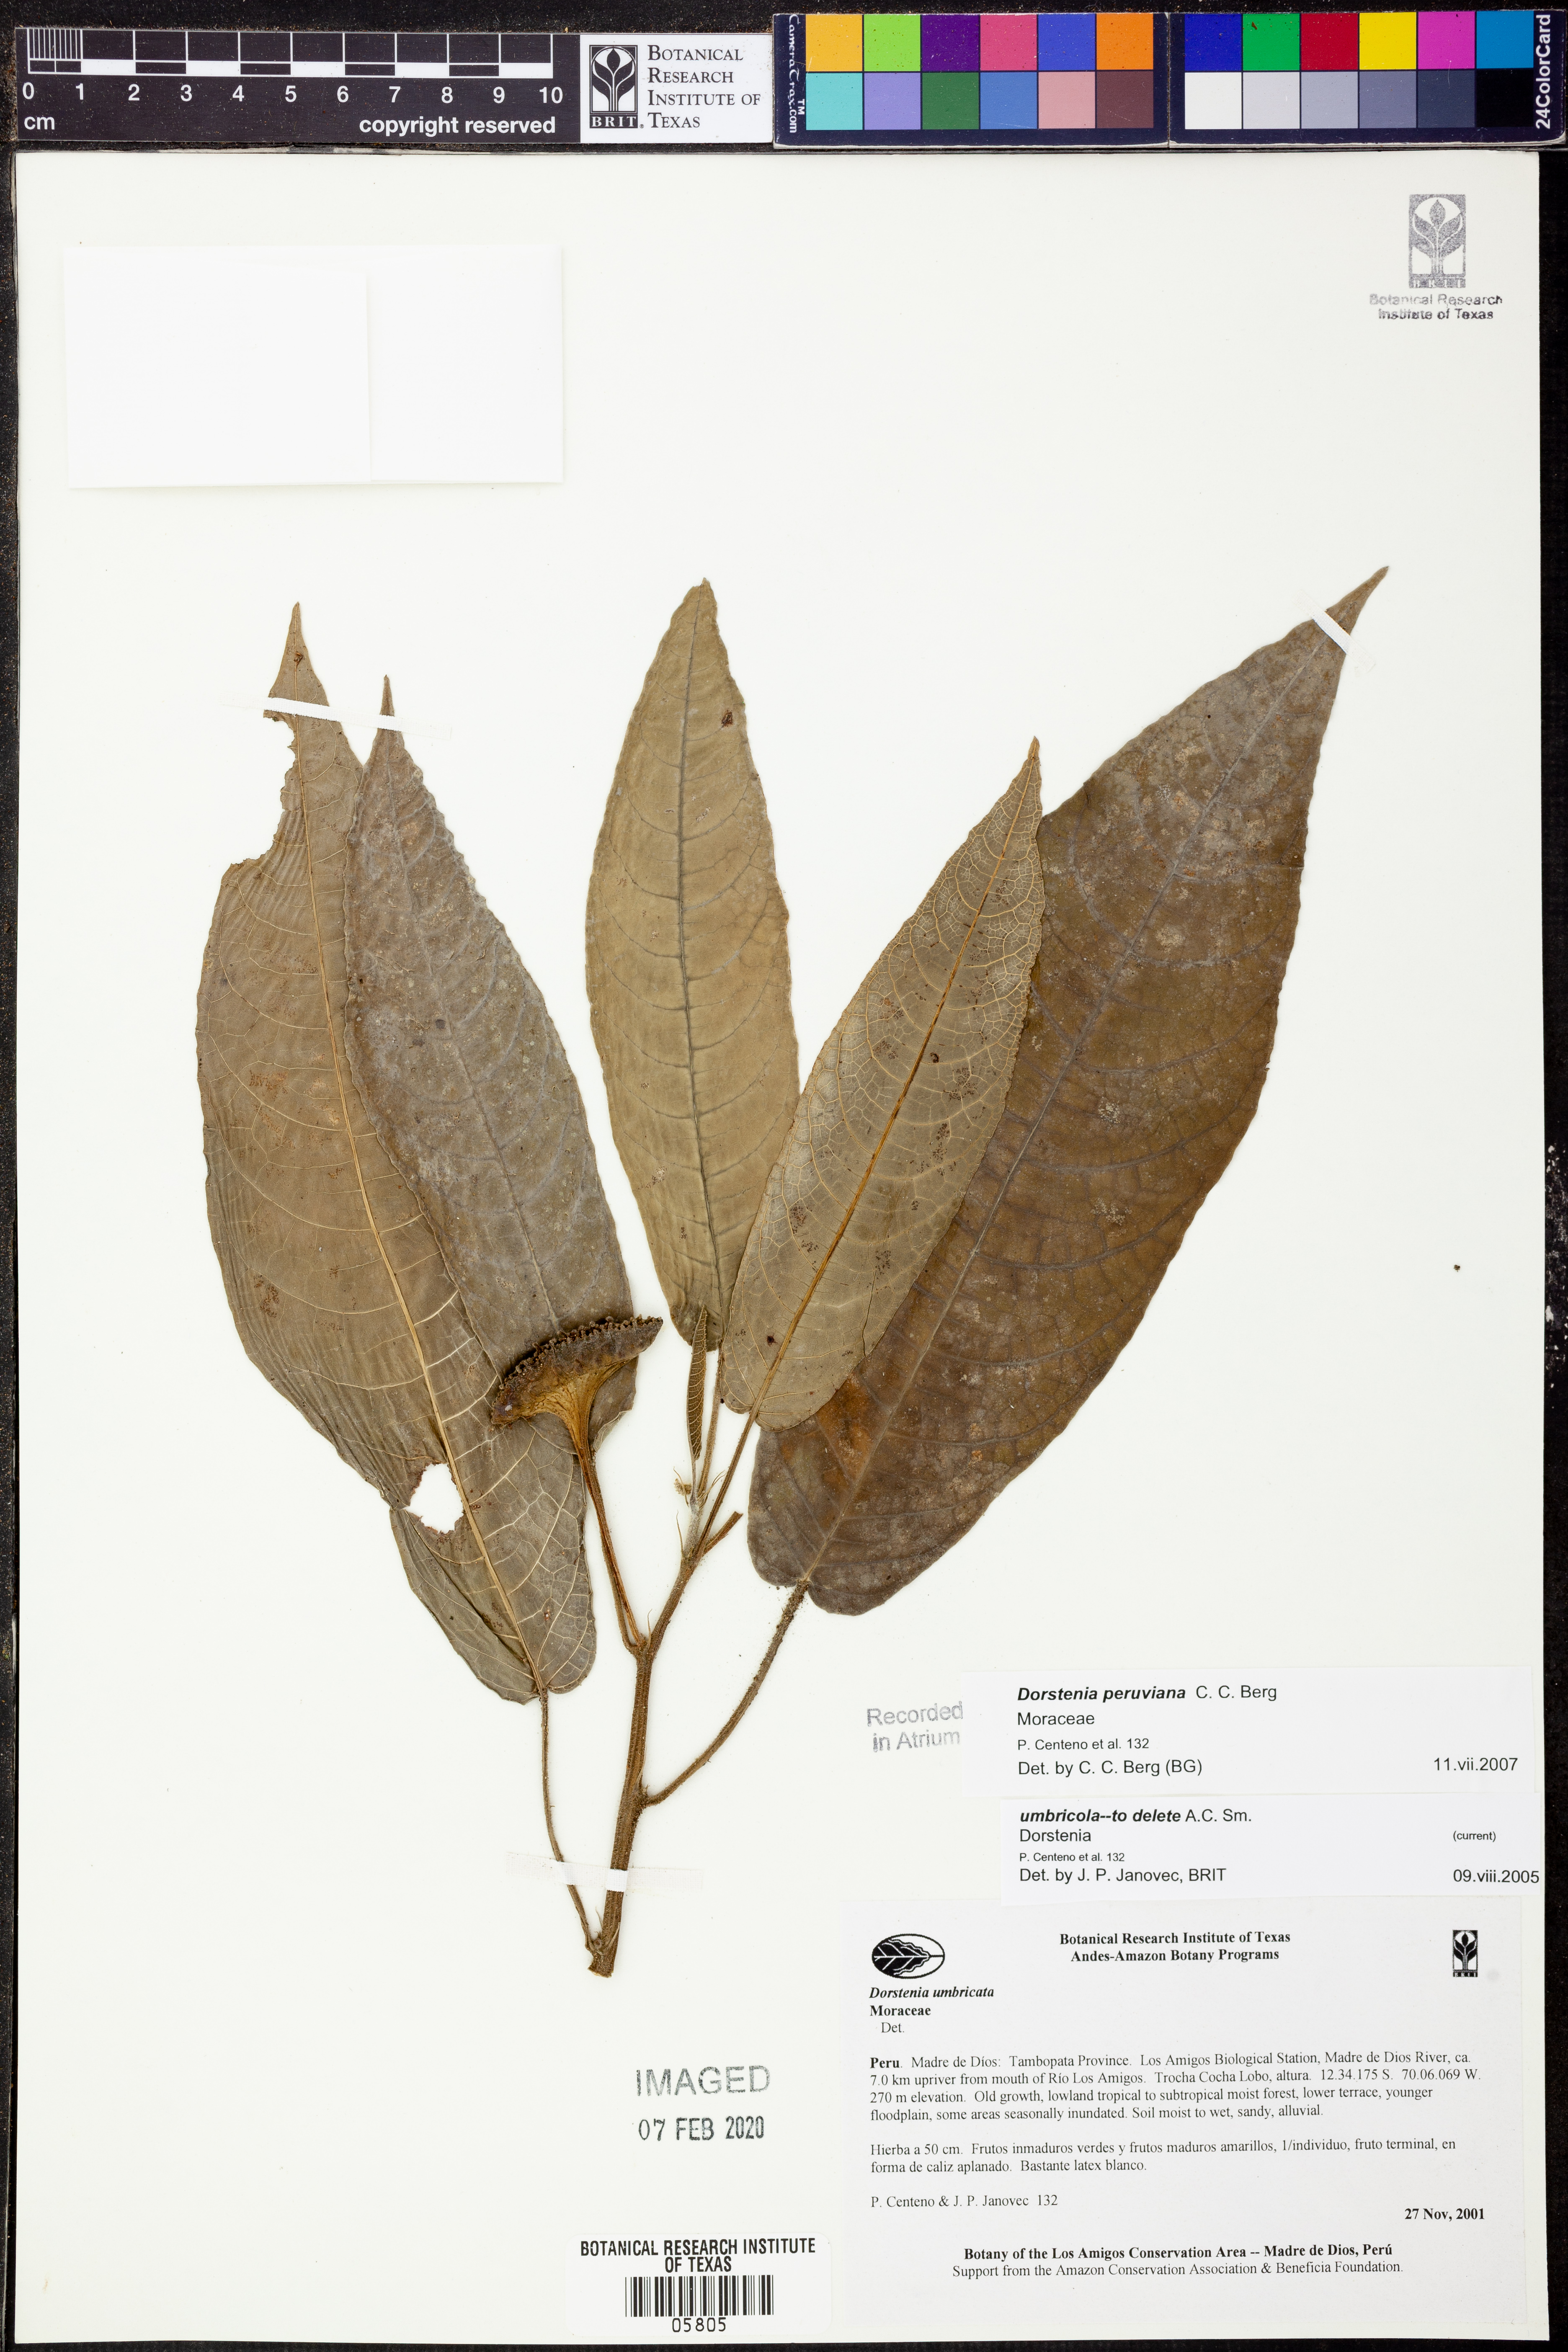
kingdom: Plantae
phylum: Tracheophyta
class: Magnoliopsida
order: Rosales
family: Moraceae
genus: Dorstenia
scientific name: Dorstenia
